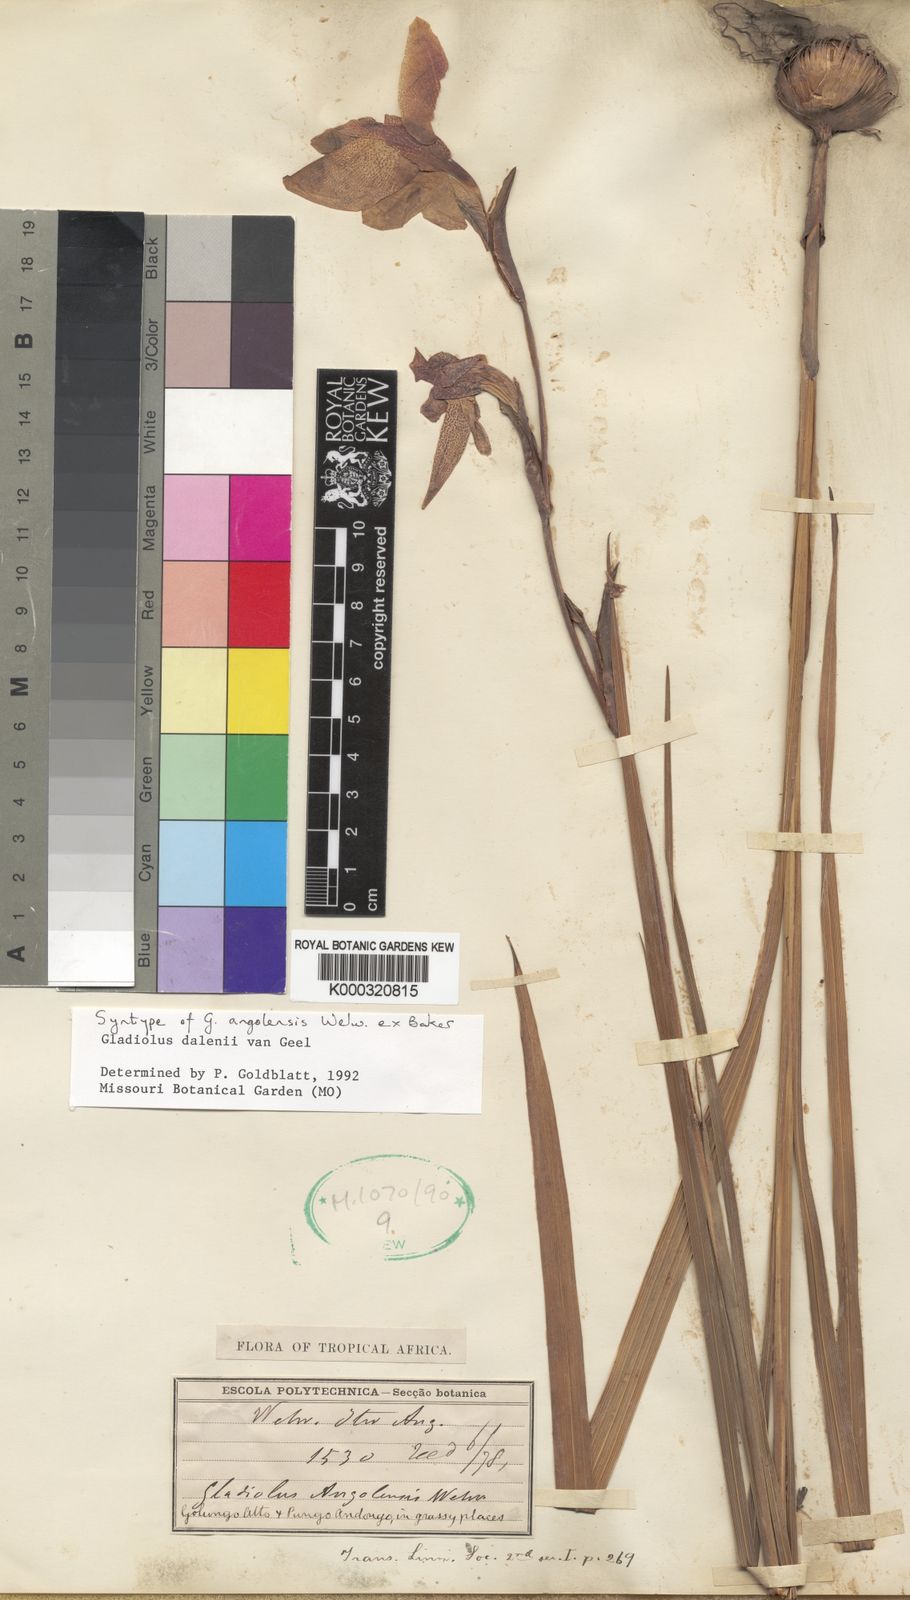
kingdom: Plantae
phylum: Tracheophyta
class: Liliopsida
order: Asparagales
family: Iridaceae
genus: Gladiolus
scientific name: Gladiolus dalenii
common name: Cornflag
